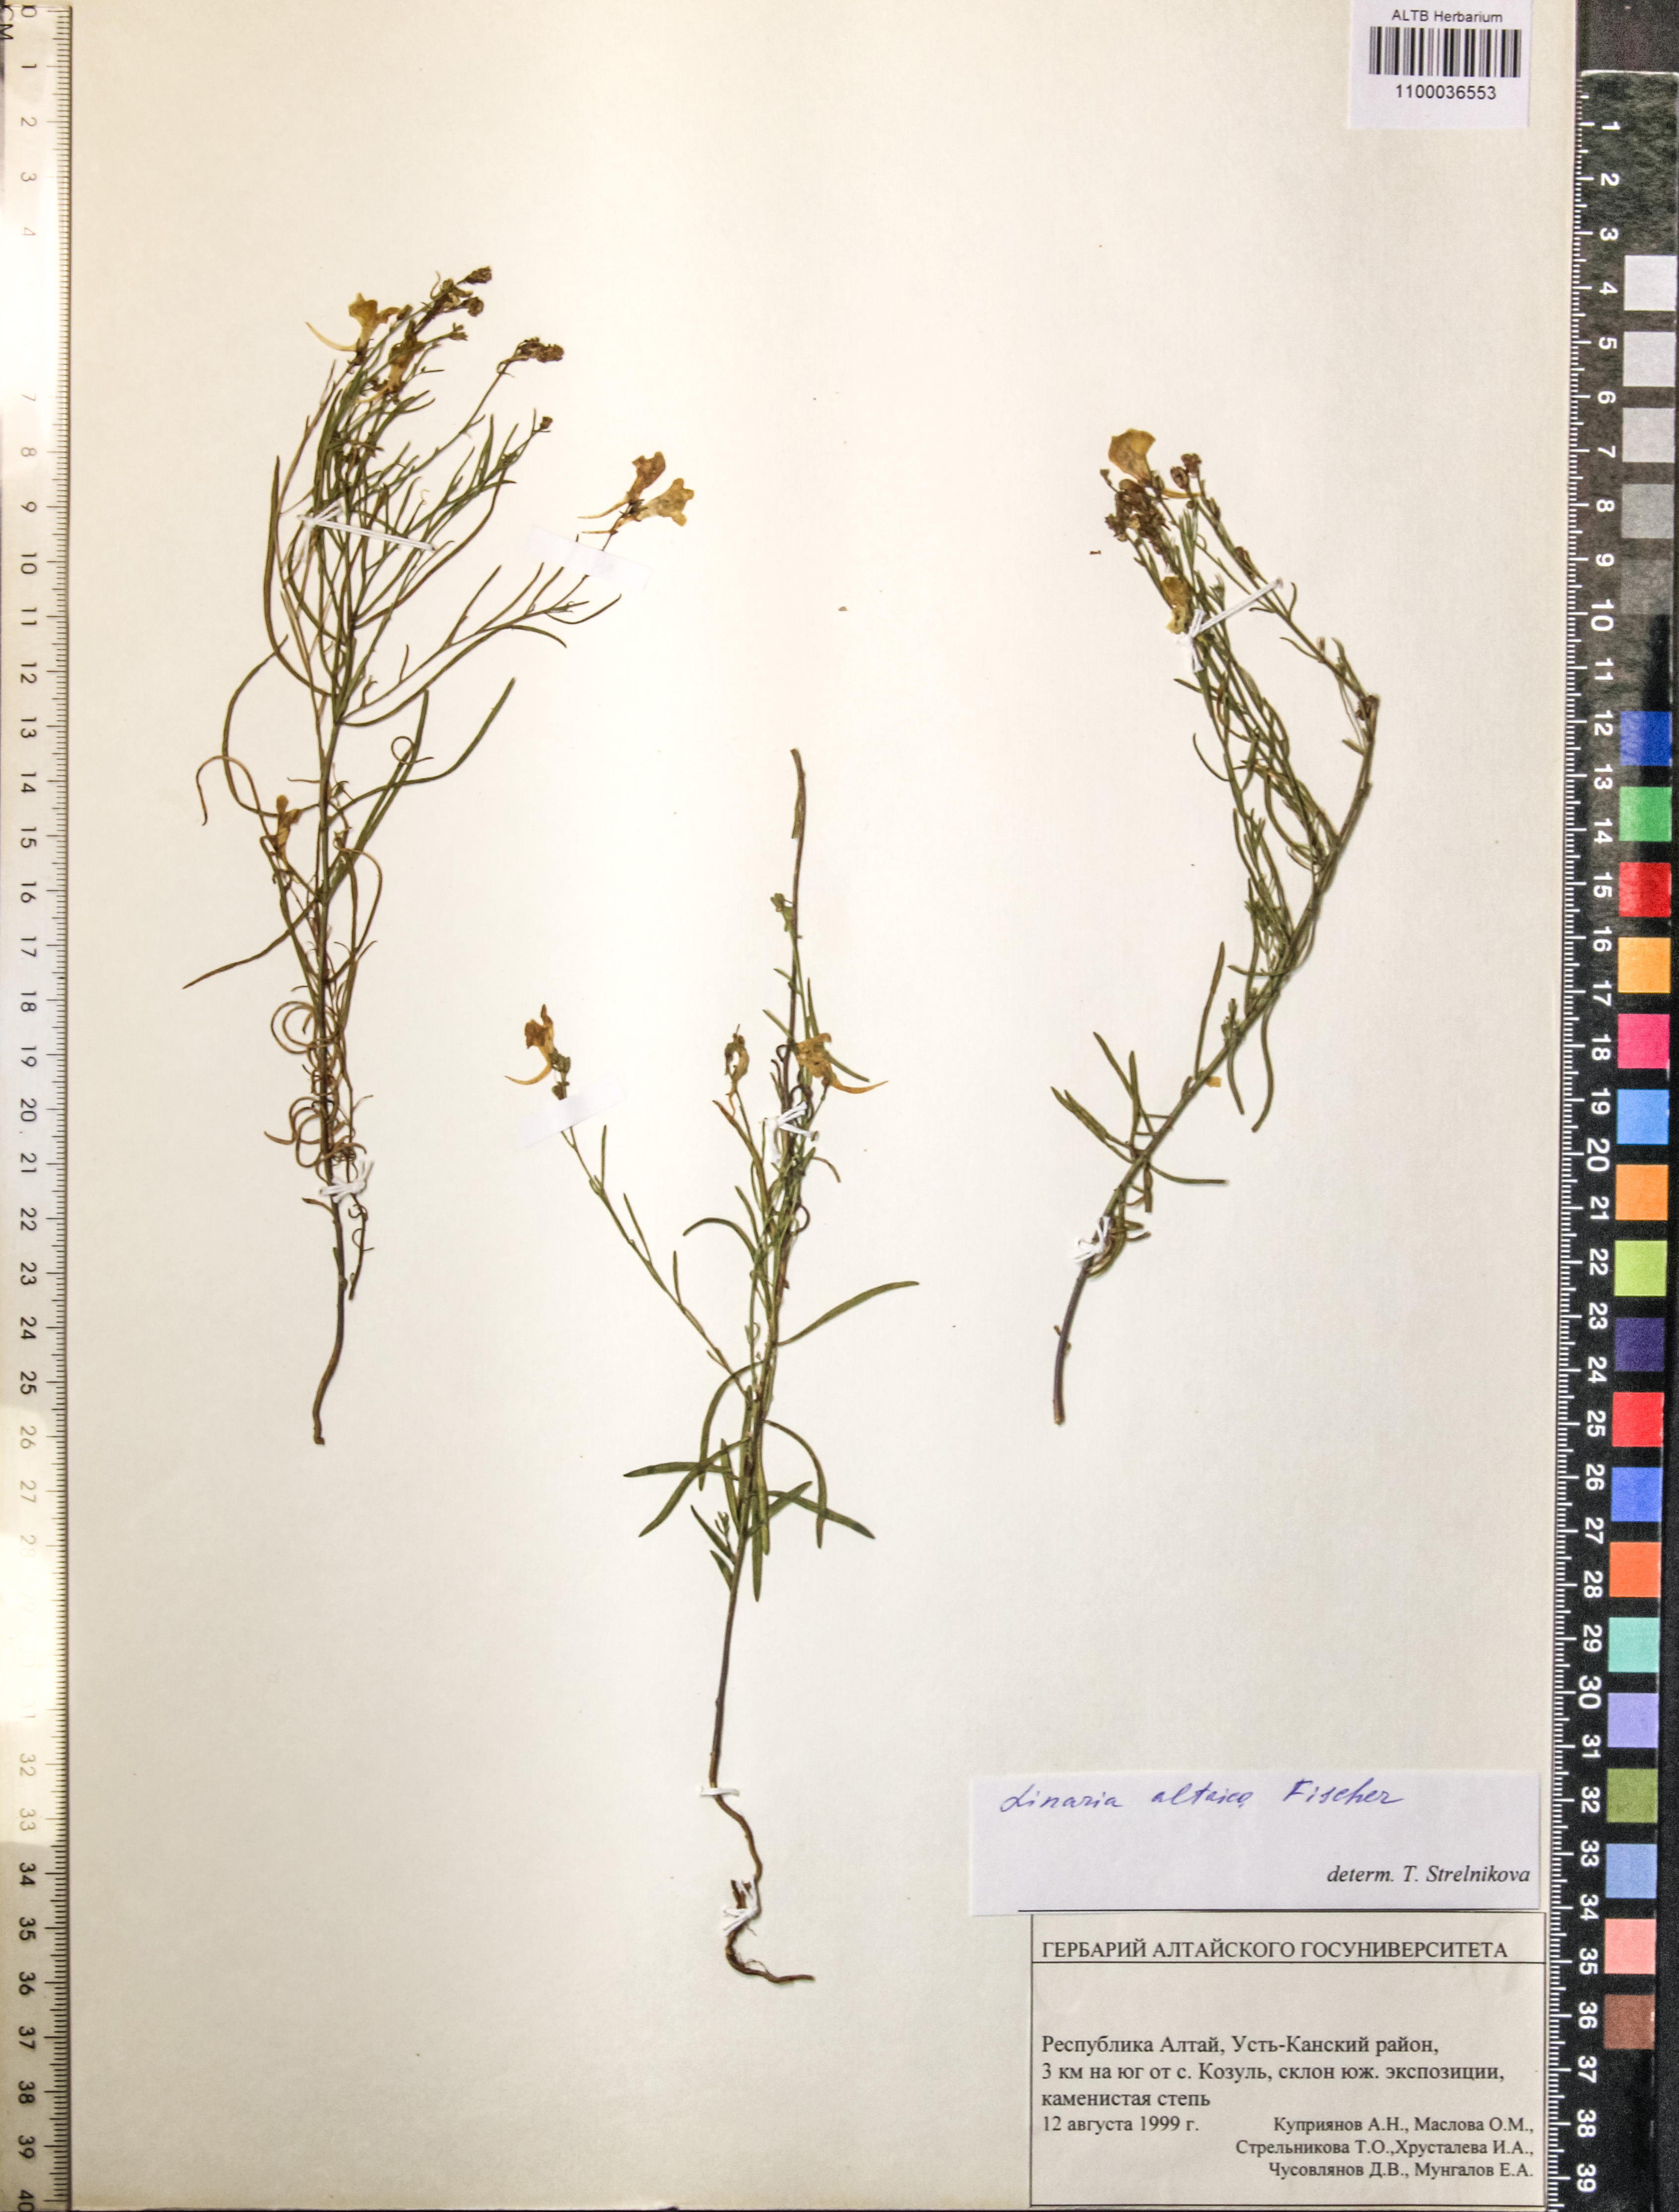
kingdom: Plantae
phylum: Tracheophyta
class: Magnoliopsida
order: Lamiales
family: Plantaginaceae
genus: Linaria
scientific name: Linaria altaica
